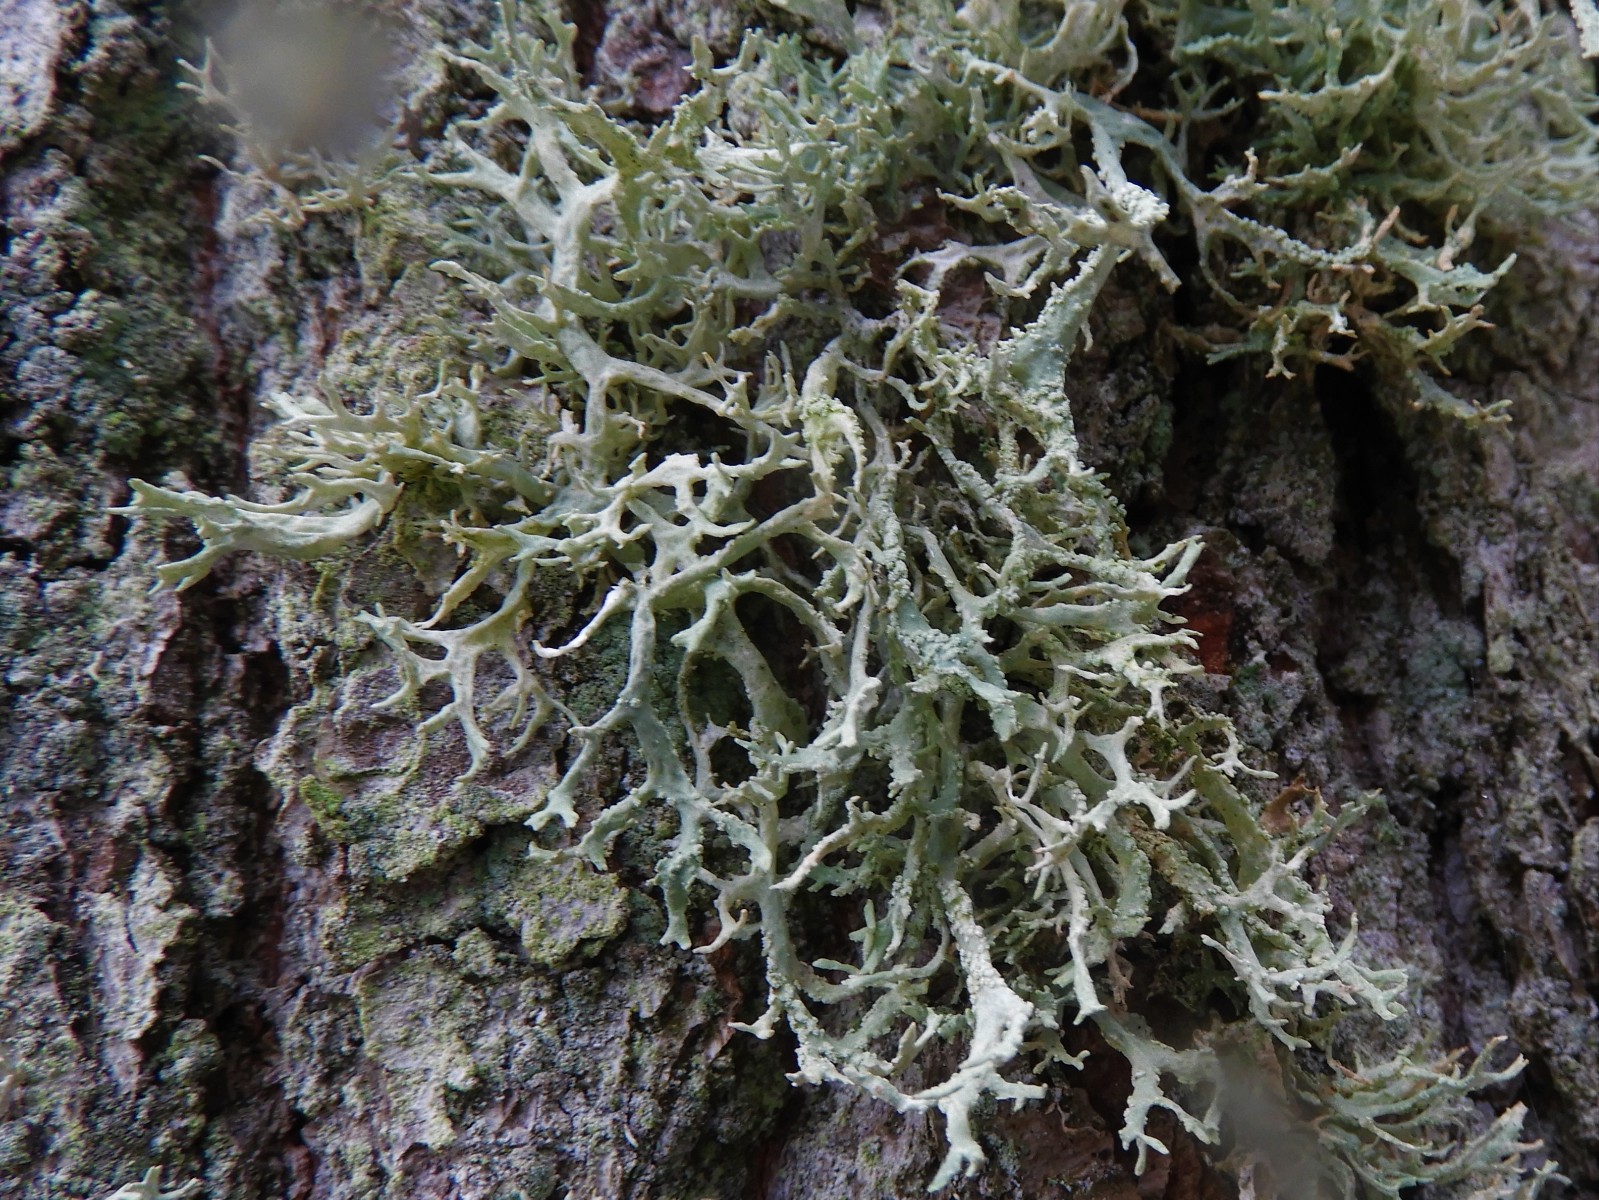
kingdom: Fungi
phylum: Ascomycota
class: Lecanoromycetes
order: Lecanorales
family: Parmeliaceae
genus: Evernia
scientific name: Evernia prunastri
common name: almindelig slåenlav
